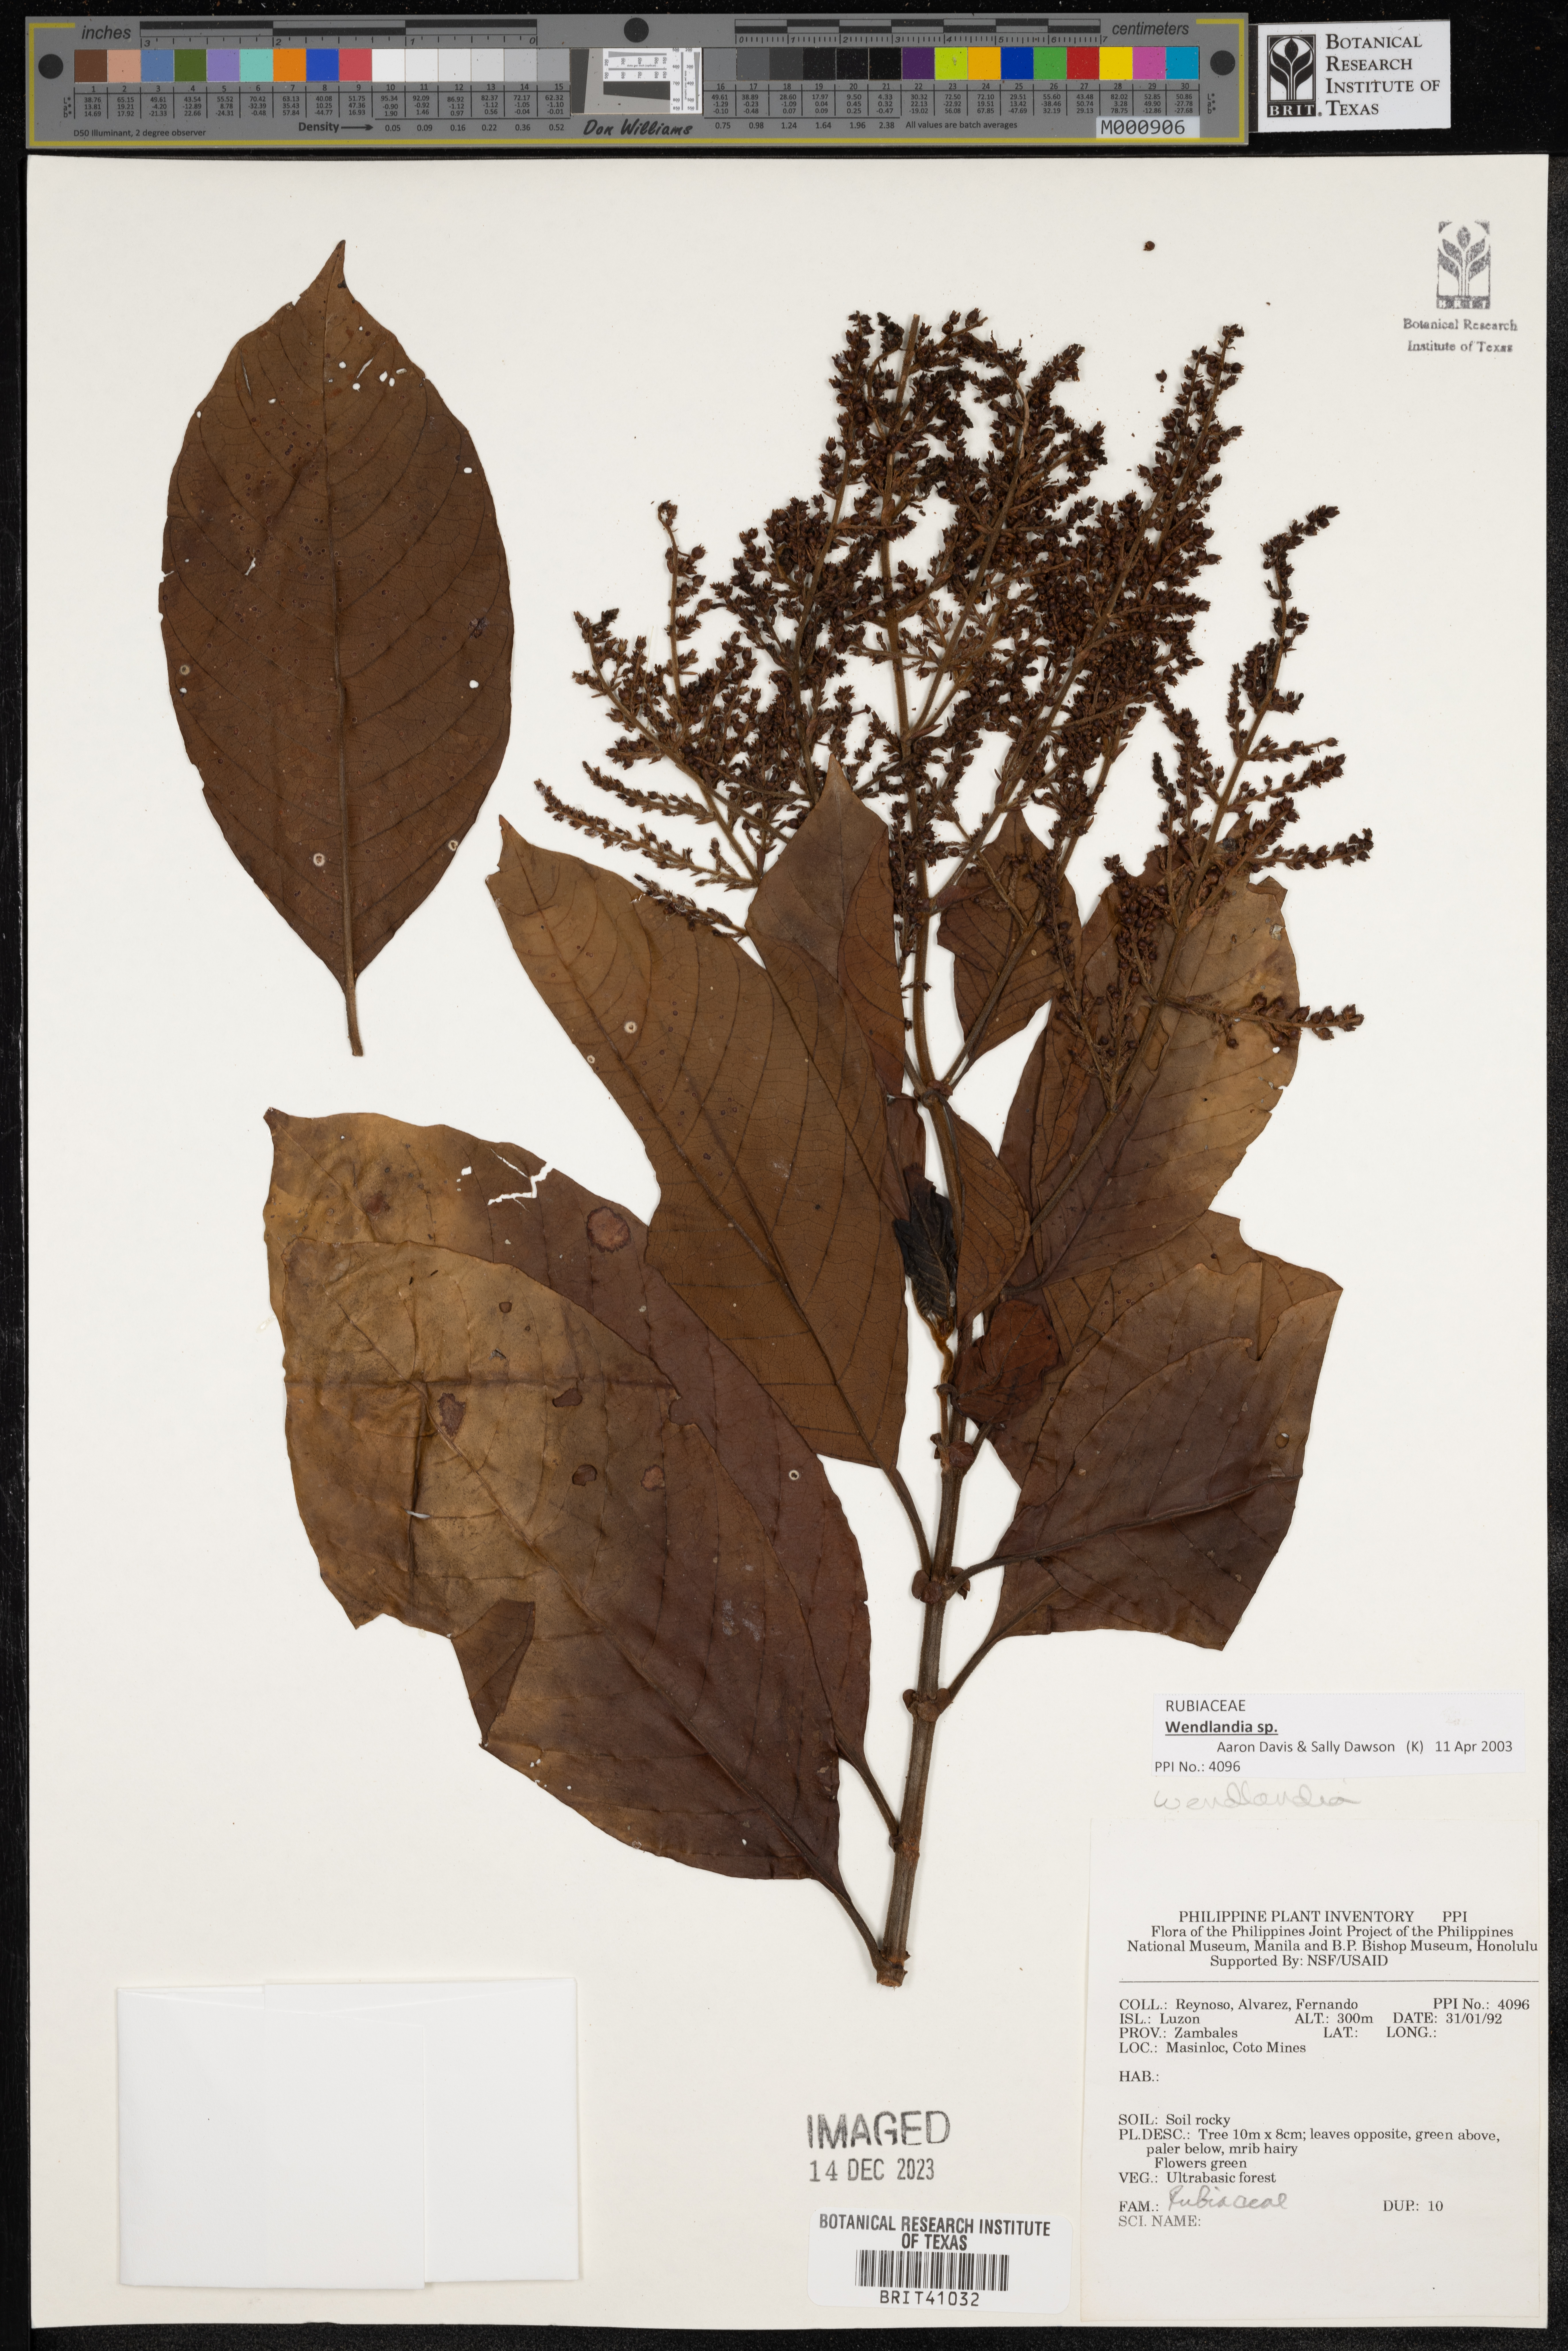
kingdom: Plantae
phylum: Tracheophyta
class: Magnoliopsida
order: Gentianales
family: Rubiaceae
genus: Wendlandia
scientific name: Wendlandia
